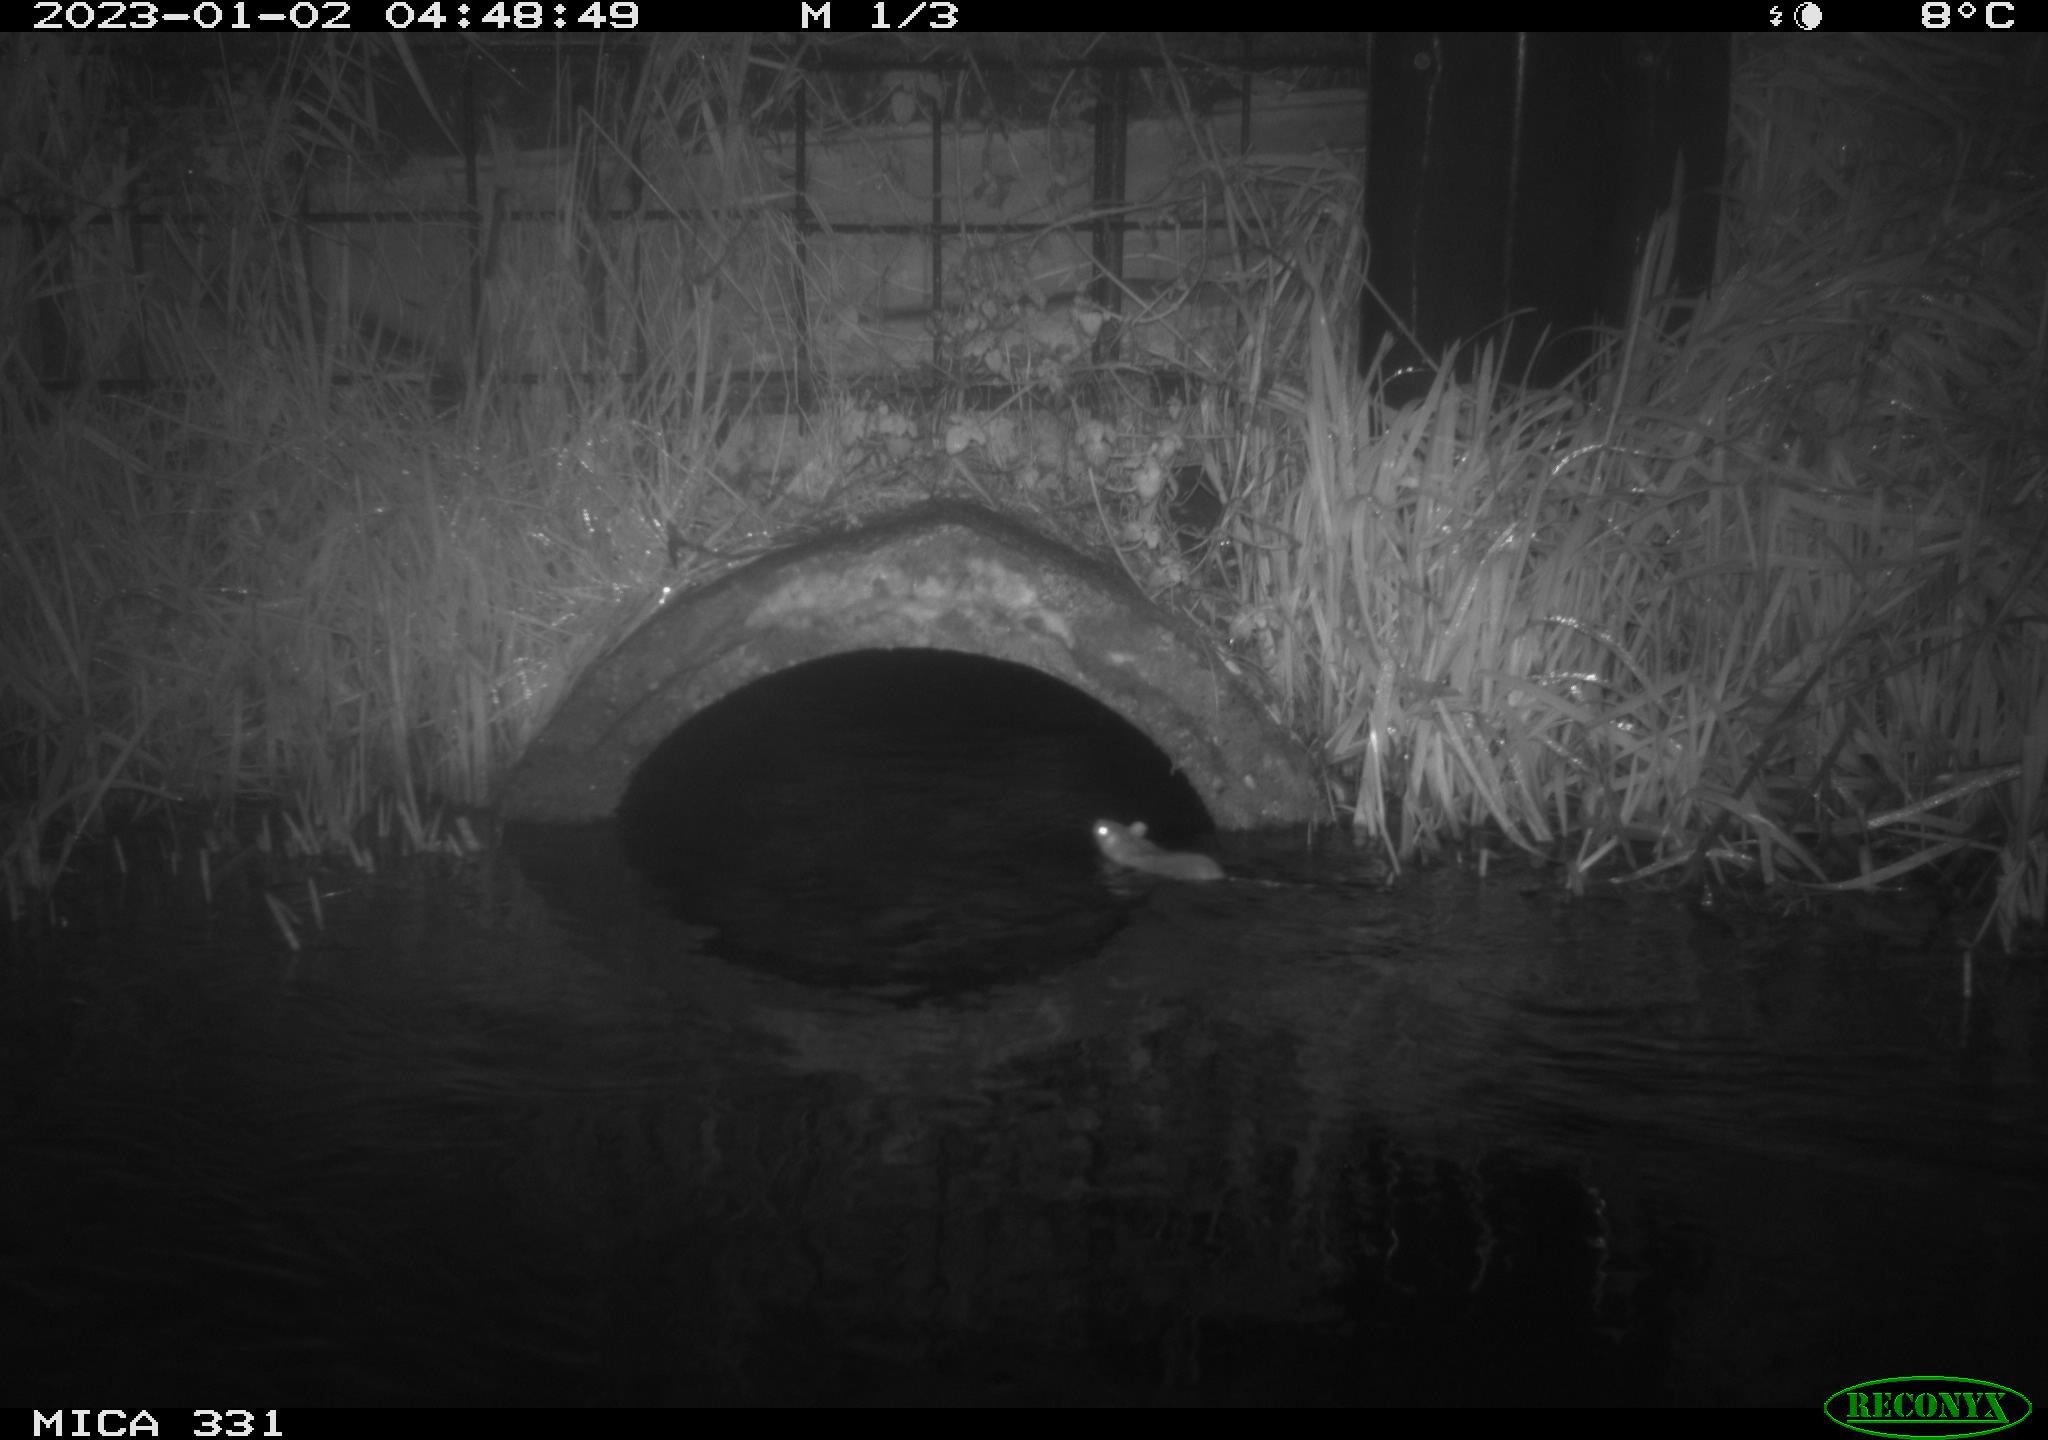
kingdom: Animalia
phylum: Chordata
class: Mammalia
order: Rodentia
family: Muridae
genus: Rattus
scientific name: Rattus norvegicus
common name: Brown rat
